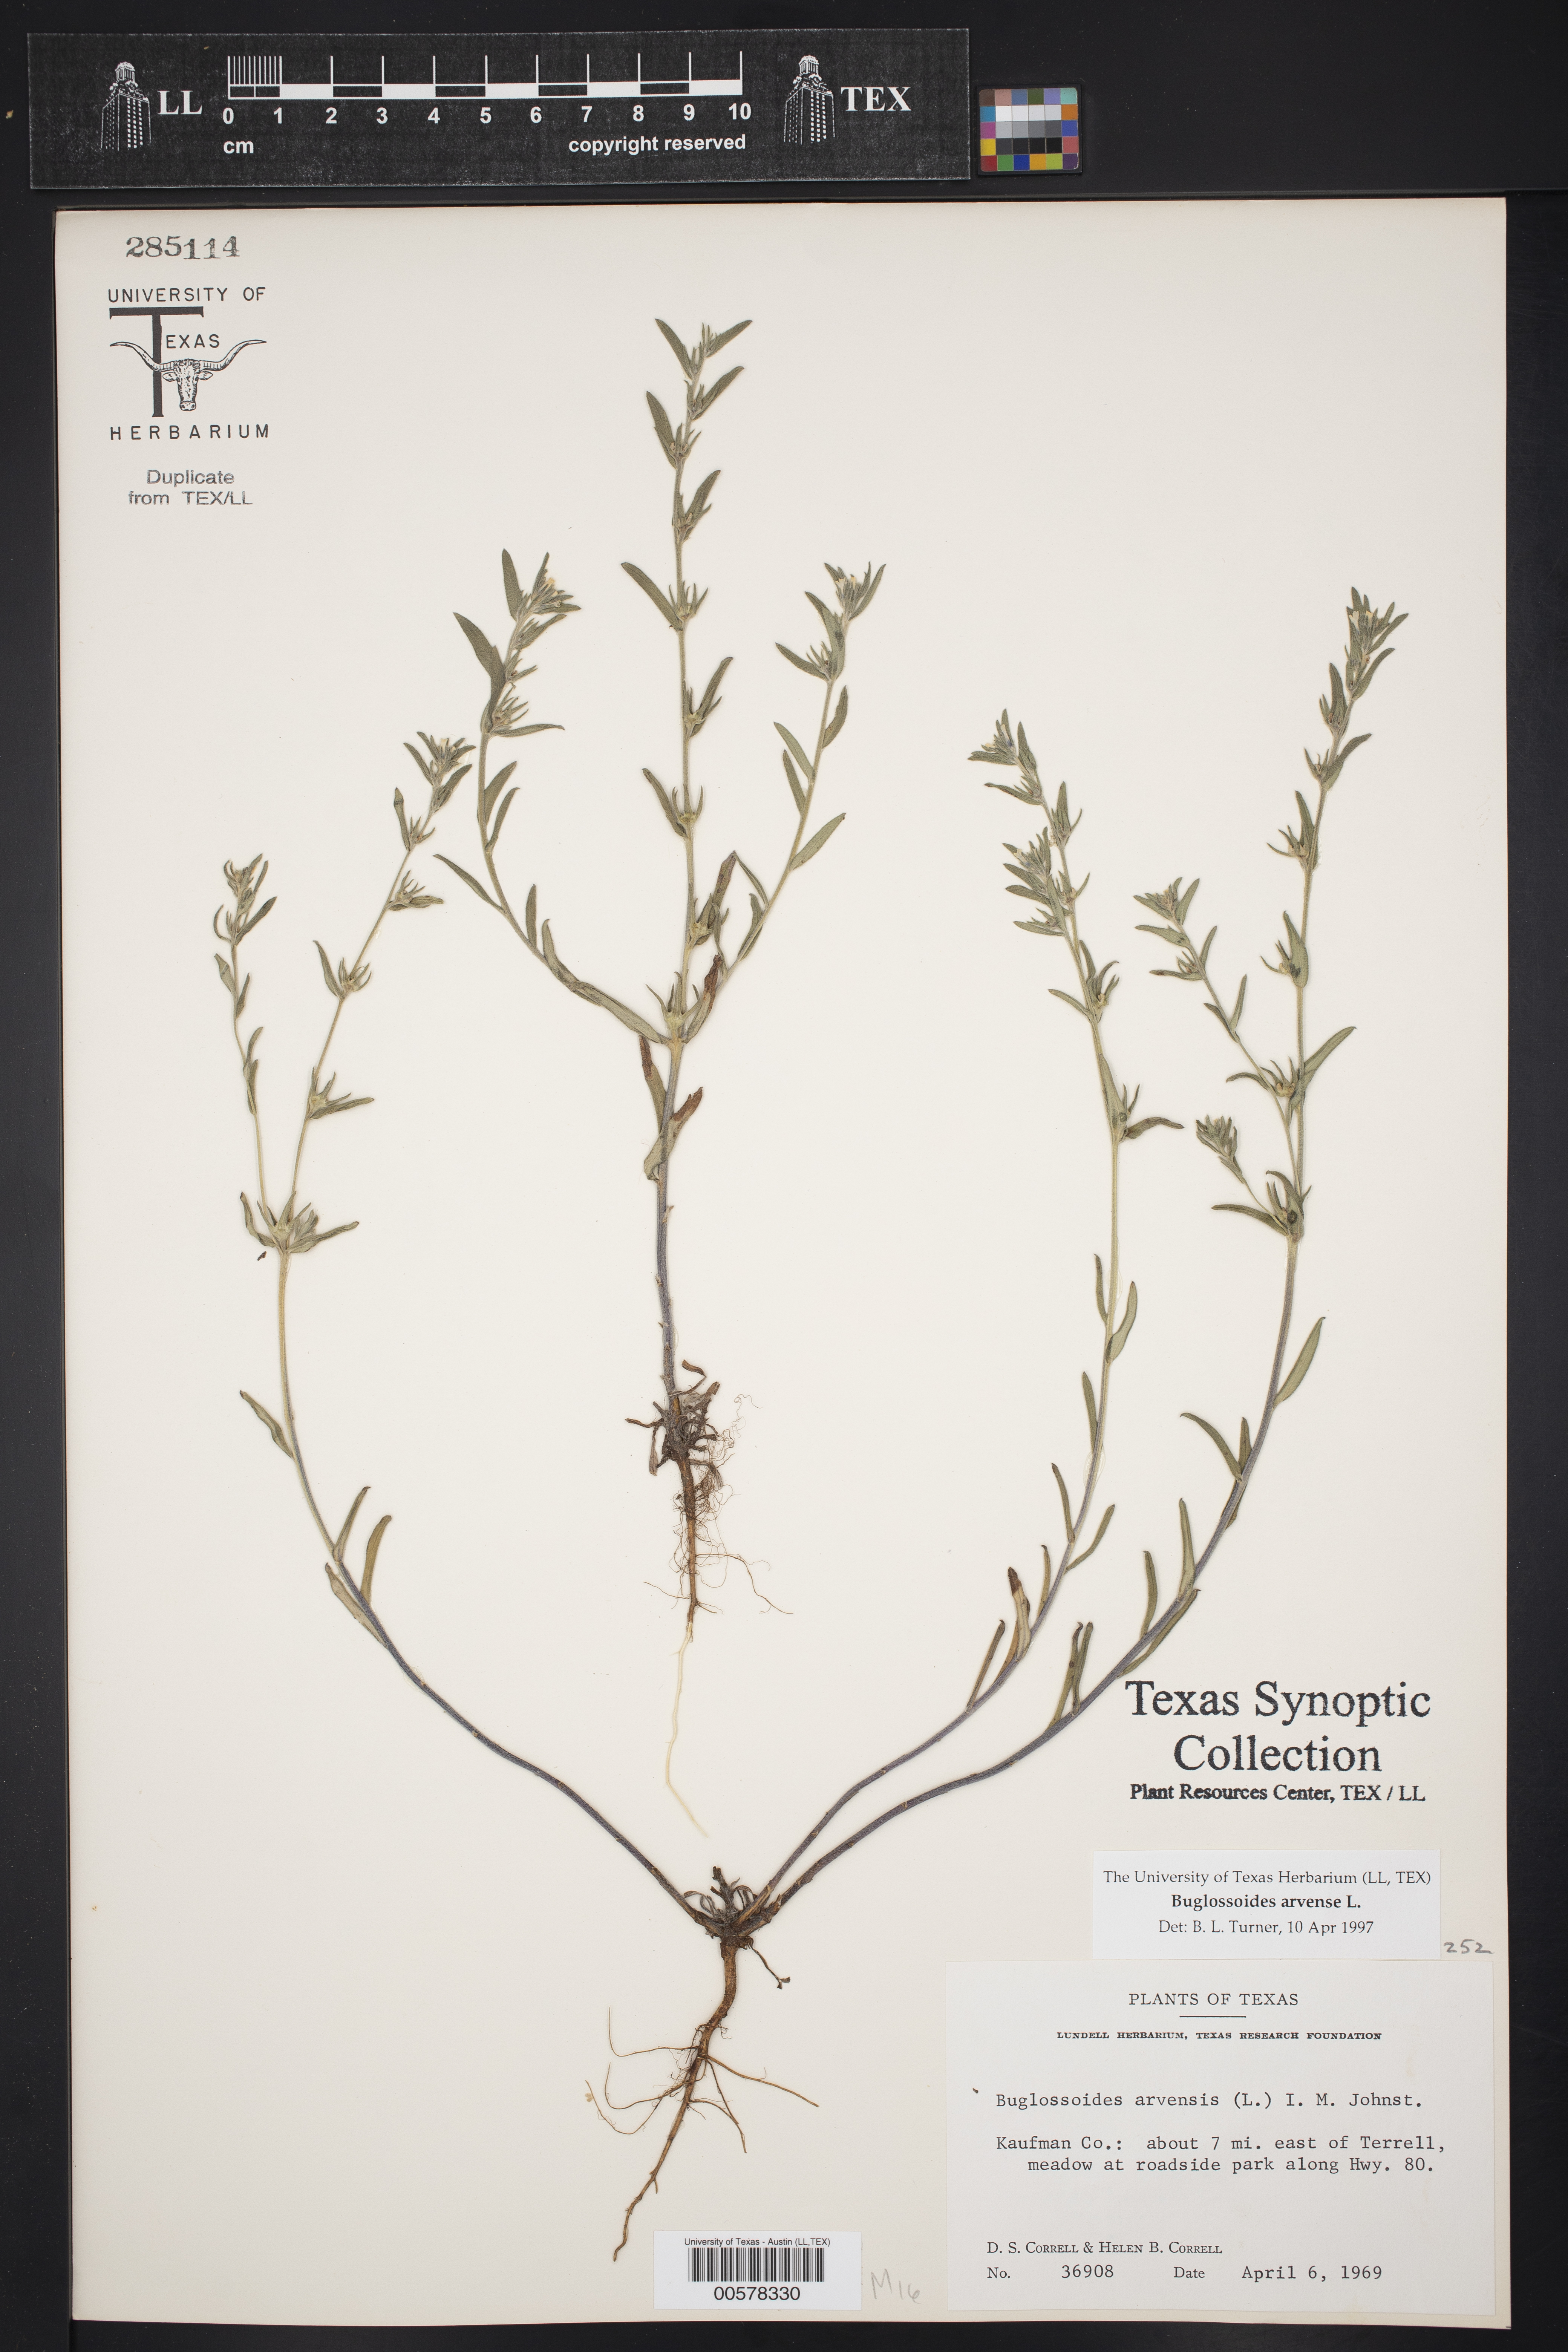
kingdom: Plantae
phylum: Tracheophyta
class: Magnoliopsida
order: Boraginales
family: Boraginaceae
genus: Buglossoides
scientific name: Buglossoides arvensis
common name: Corn gromwell
